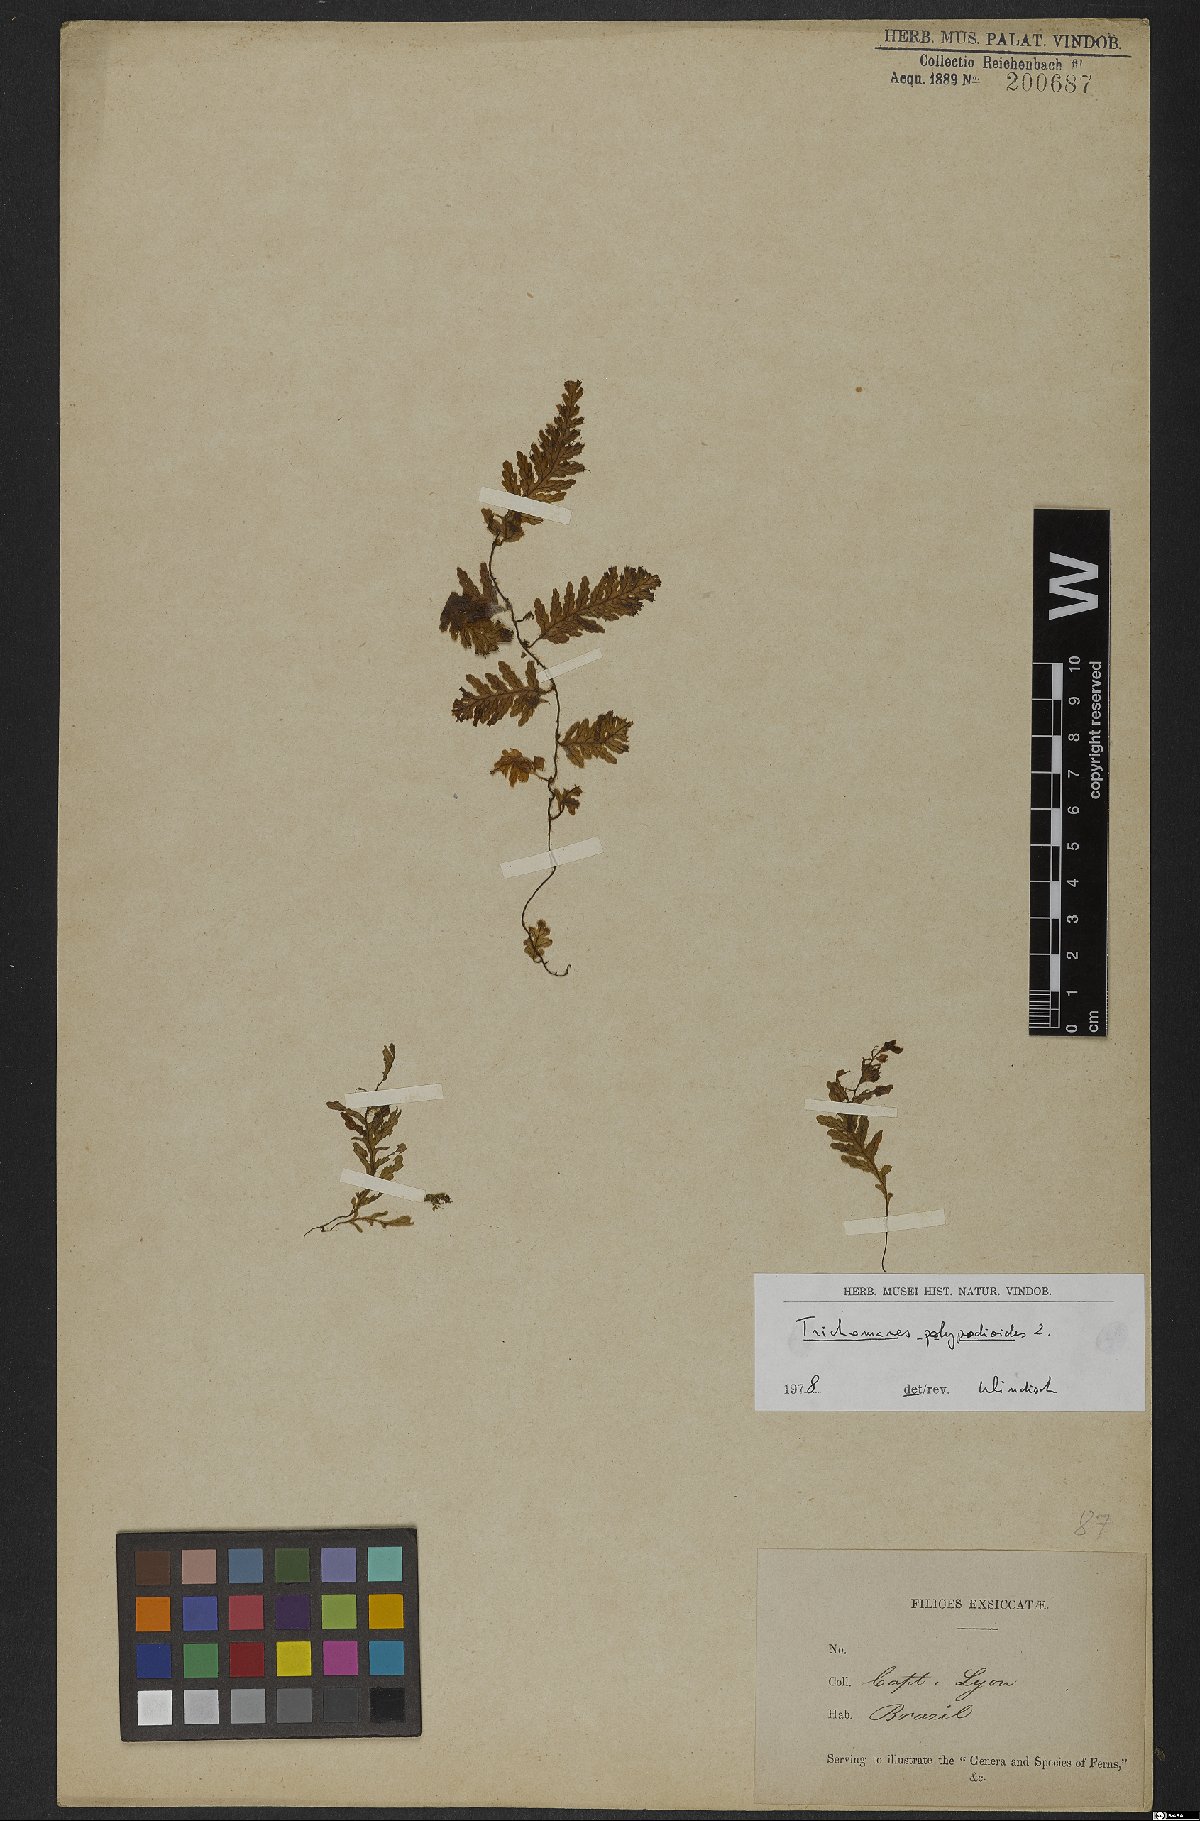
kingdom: Plantae
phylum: Tracheophyta
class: Polypodiopsida
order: Hymenophyllales
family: Hymenophyllaceae
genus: Trichomanes
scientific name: Trichomanes polypodioides
